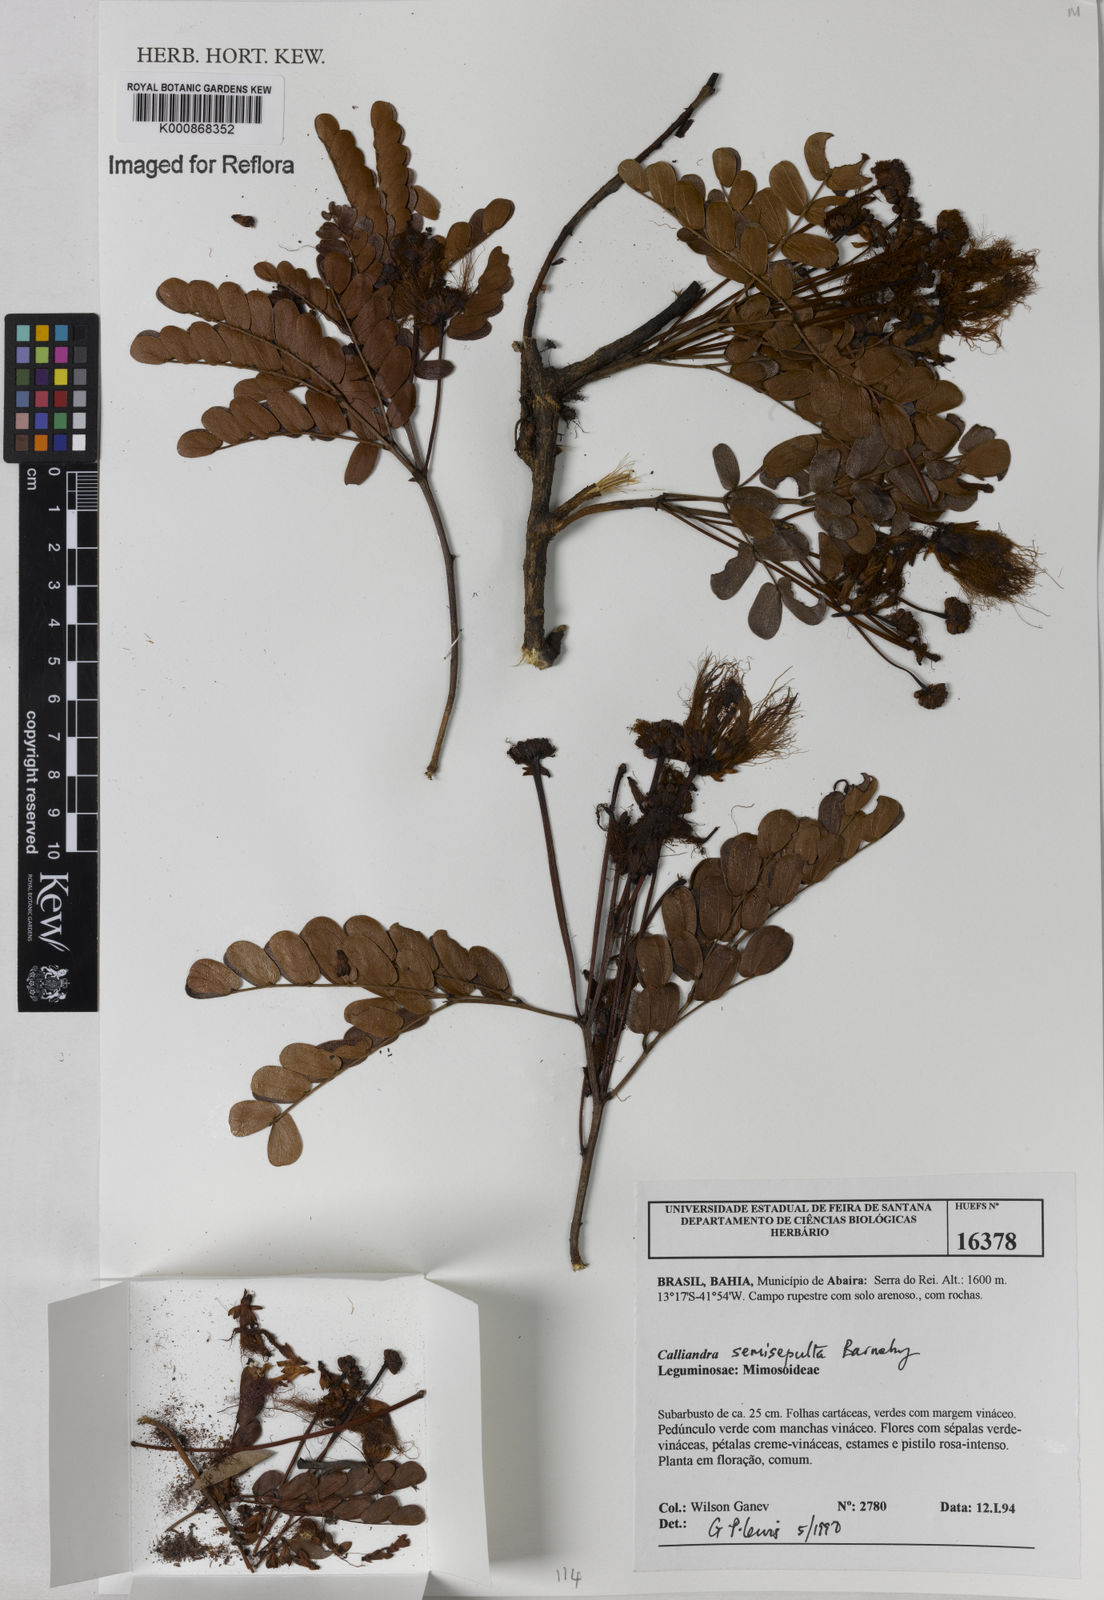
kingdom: Plantae
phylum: Tracheophyta
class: Magnoliopsida
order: Fabales
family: Fabaceae
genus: Calliandra
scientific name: Calliandra semisepulta
